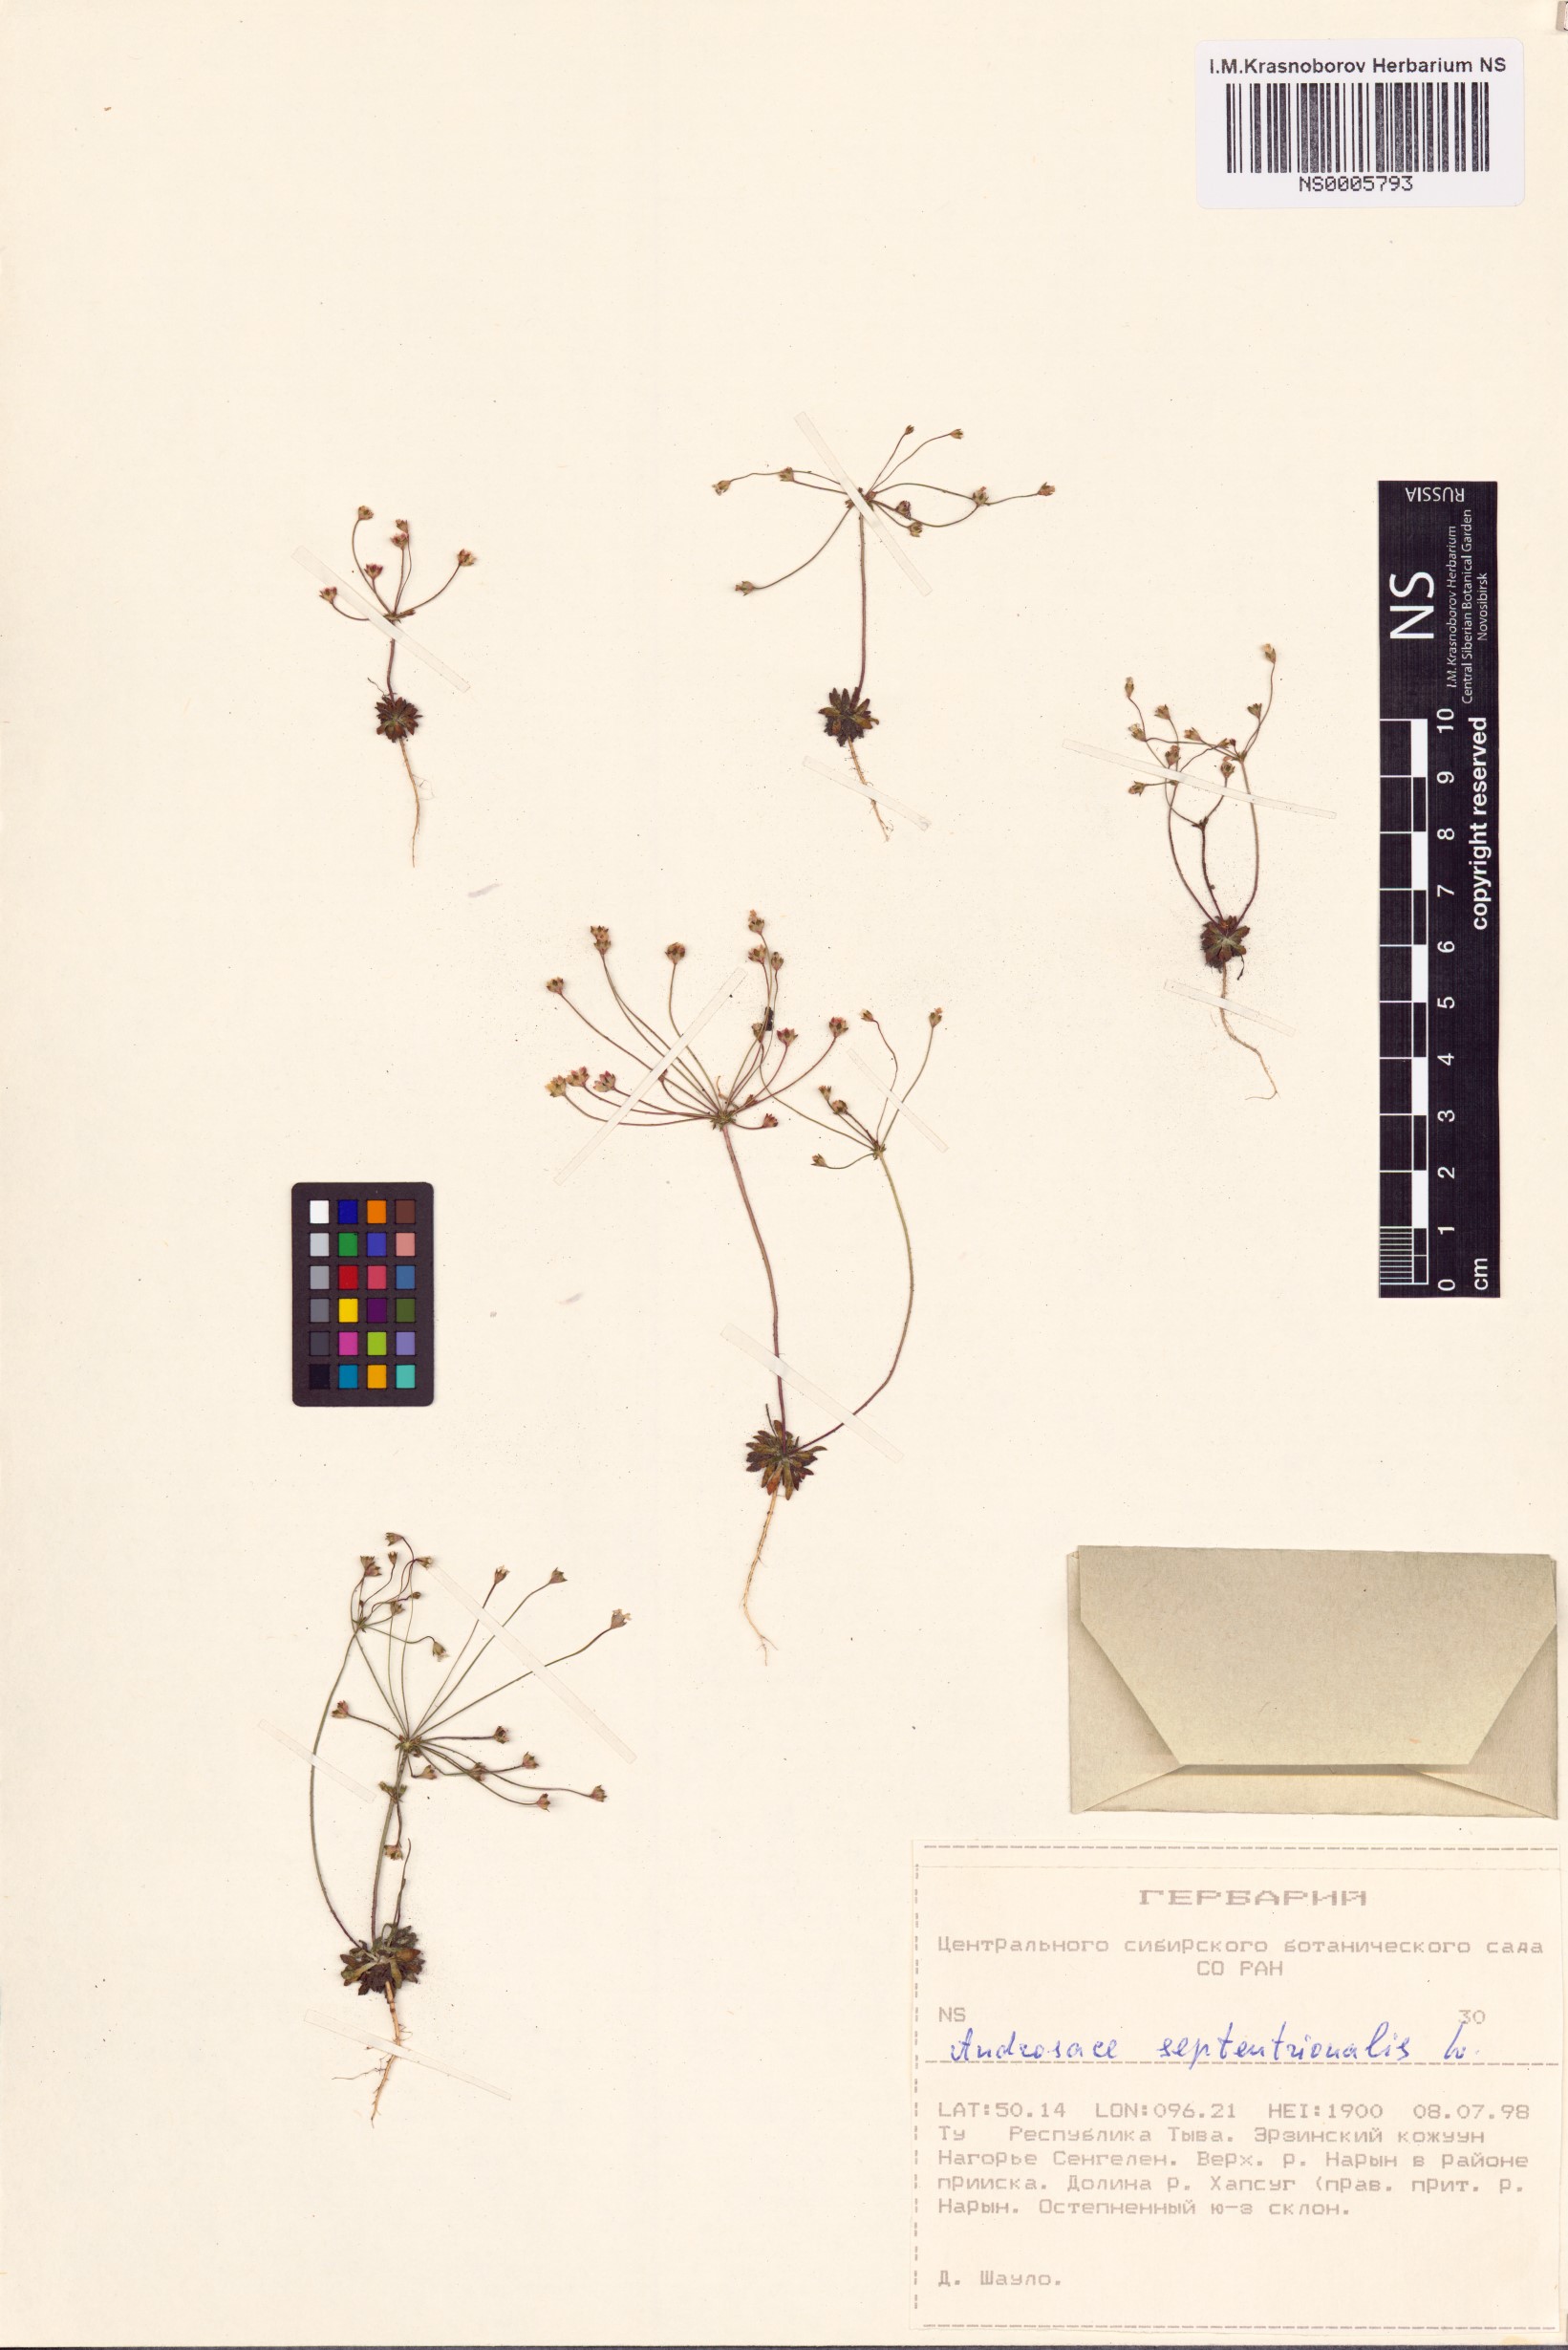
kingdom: Plantae
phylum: Tracheophyta
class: Magnoliopsida
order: Ericales
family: Primulaceae
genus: Androsace
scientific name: Androsace septentrionalis
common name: Hairy northern fairy-candelabra
